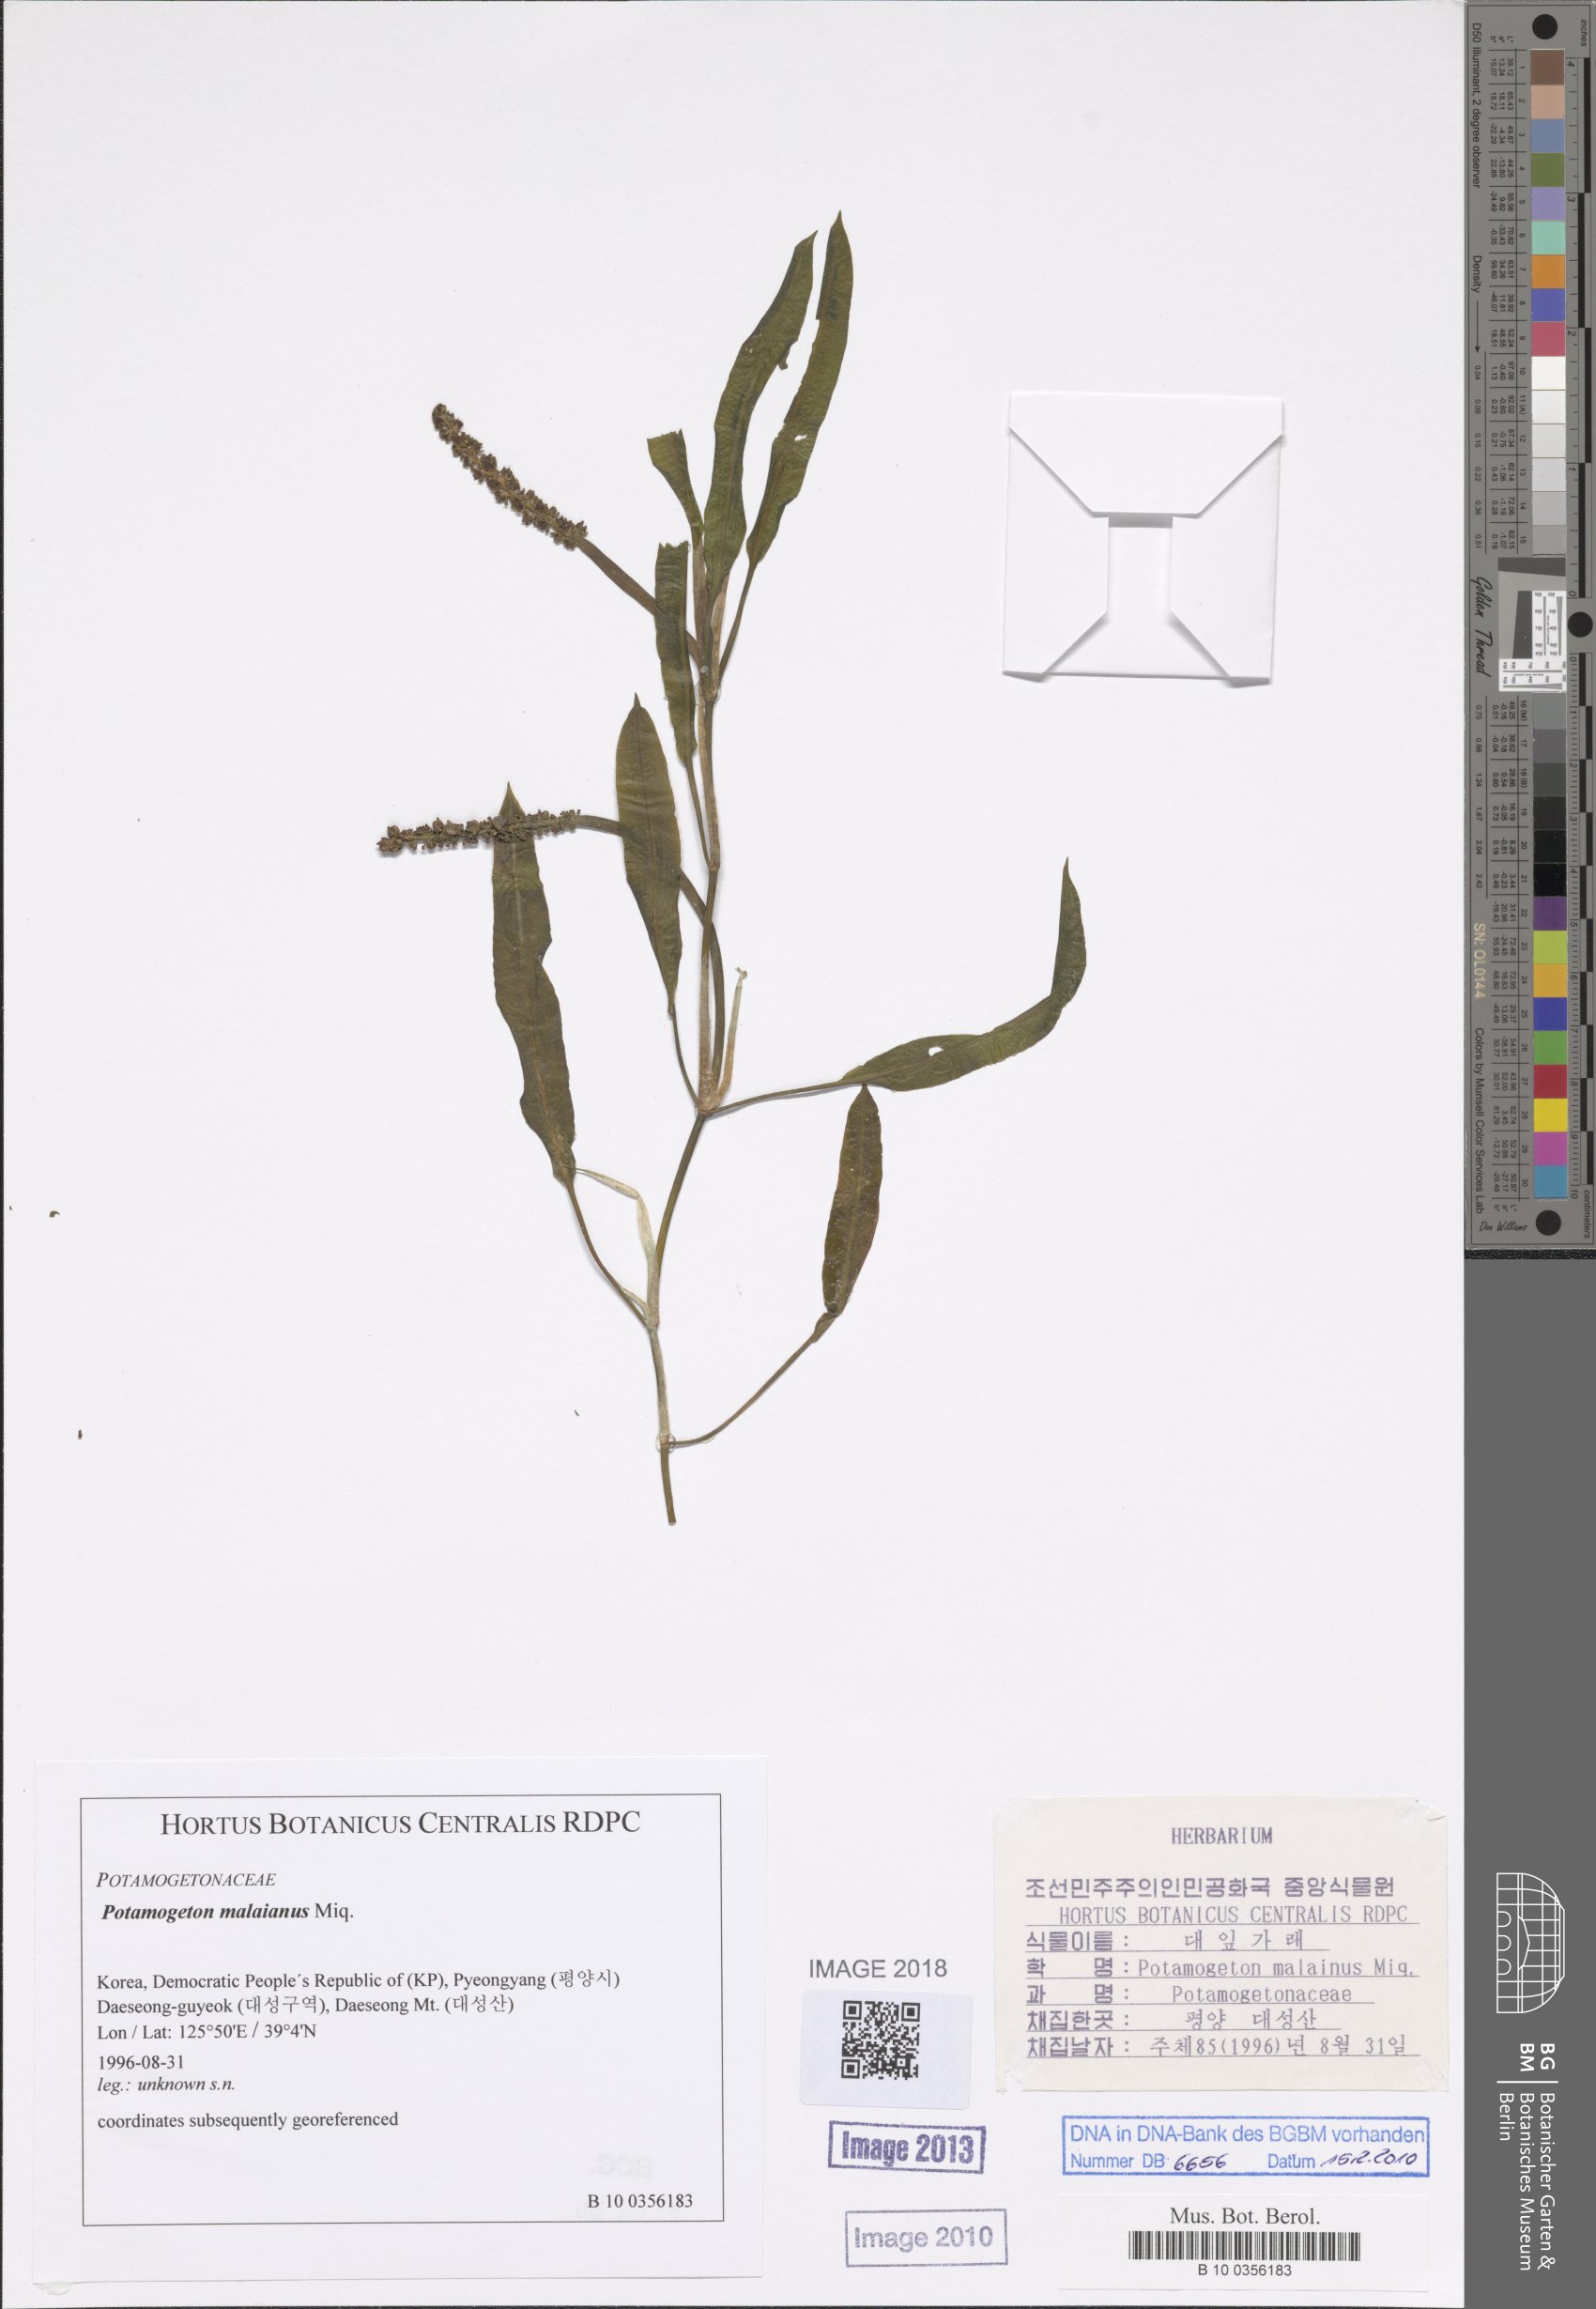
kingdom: Plantae
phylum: Tracheophyta
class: Liliopsida
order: Alismatales
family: Potamogetonaceae
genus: Potamogeton
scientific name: Potamogeton nodosus
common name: Loddon pondweed
